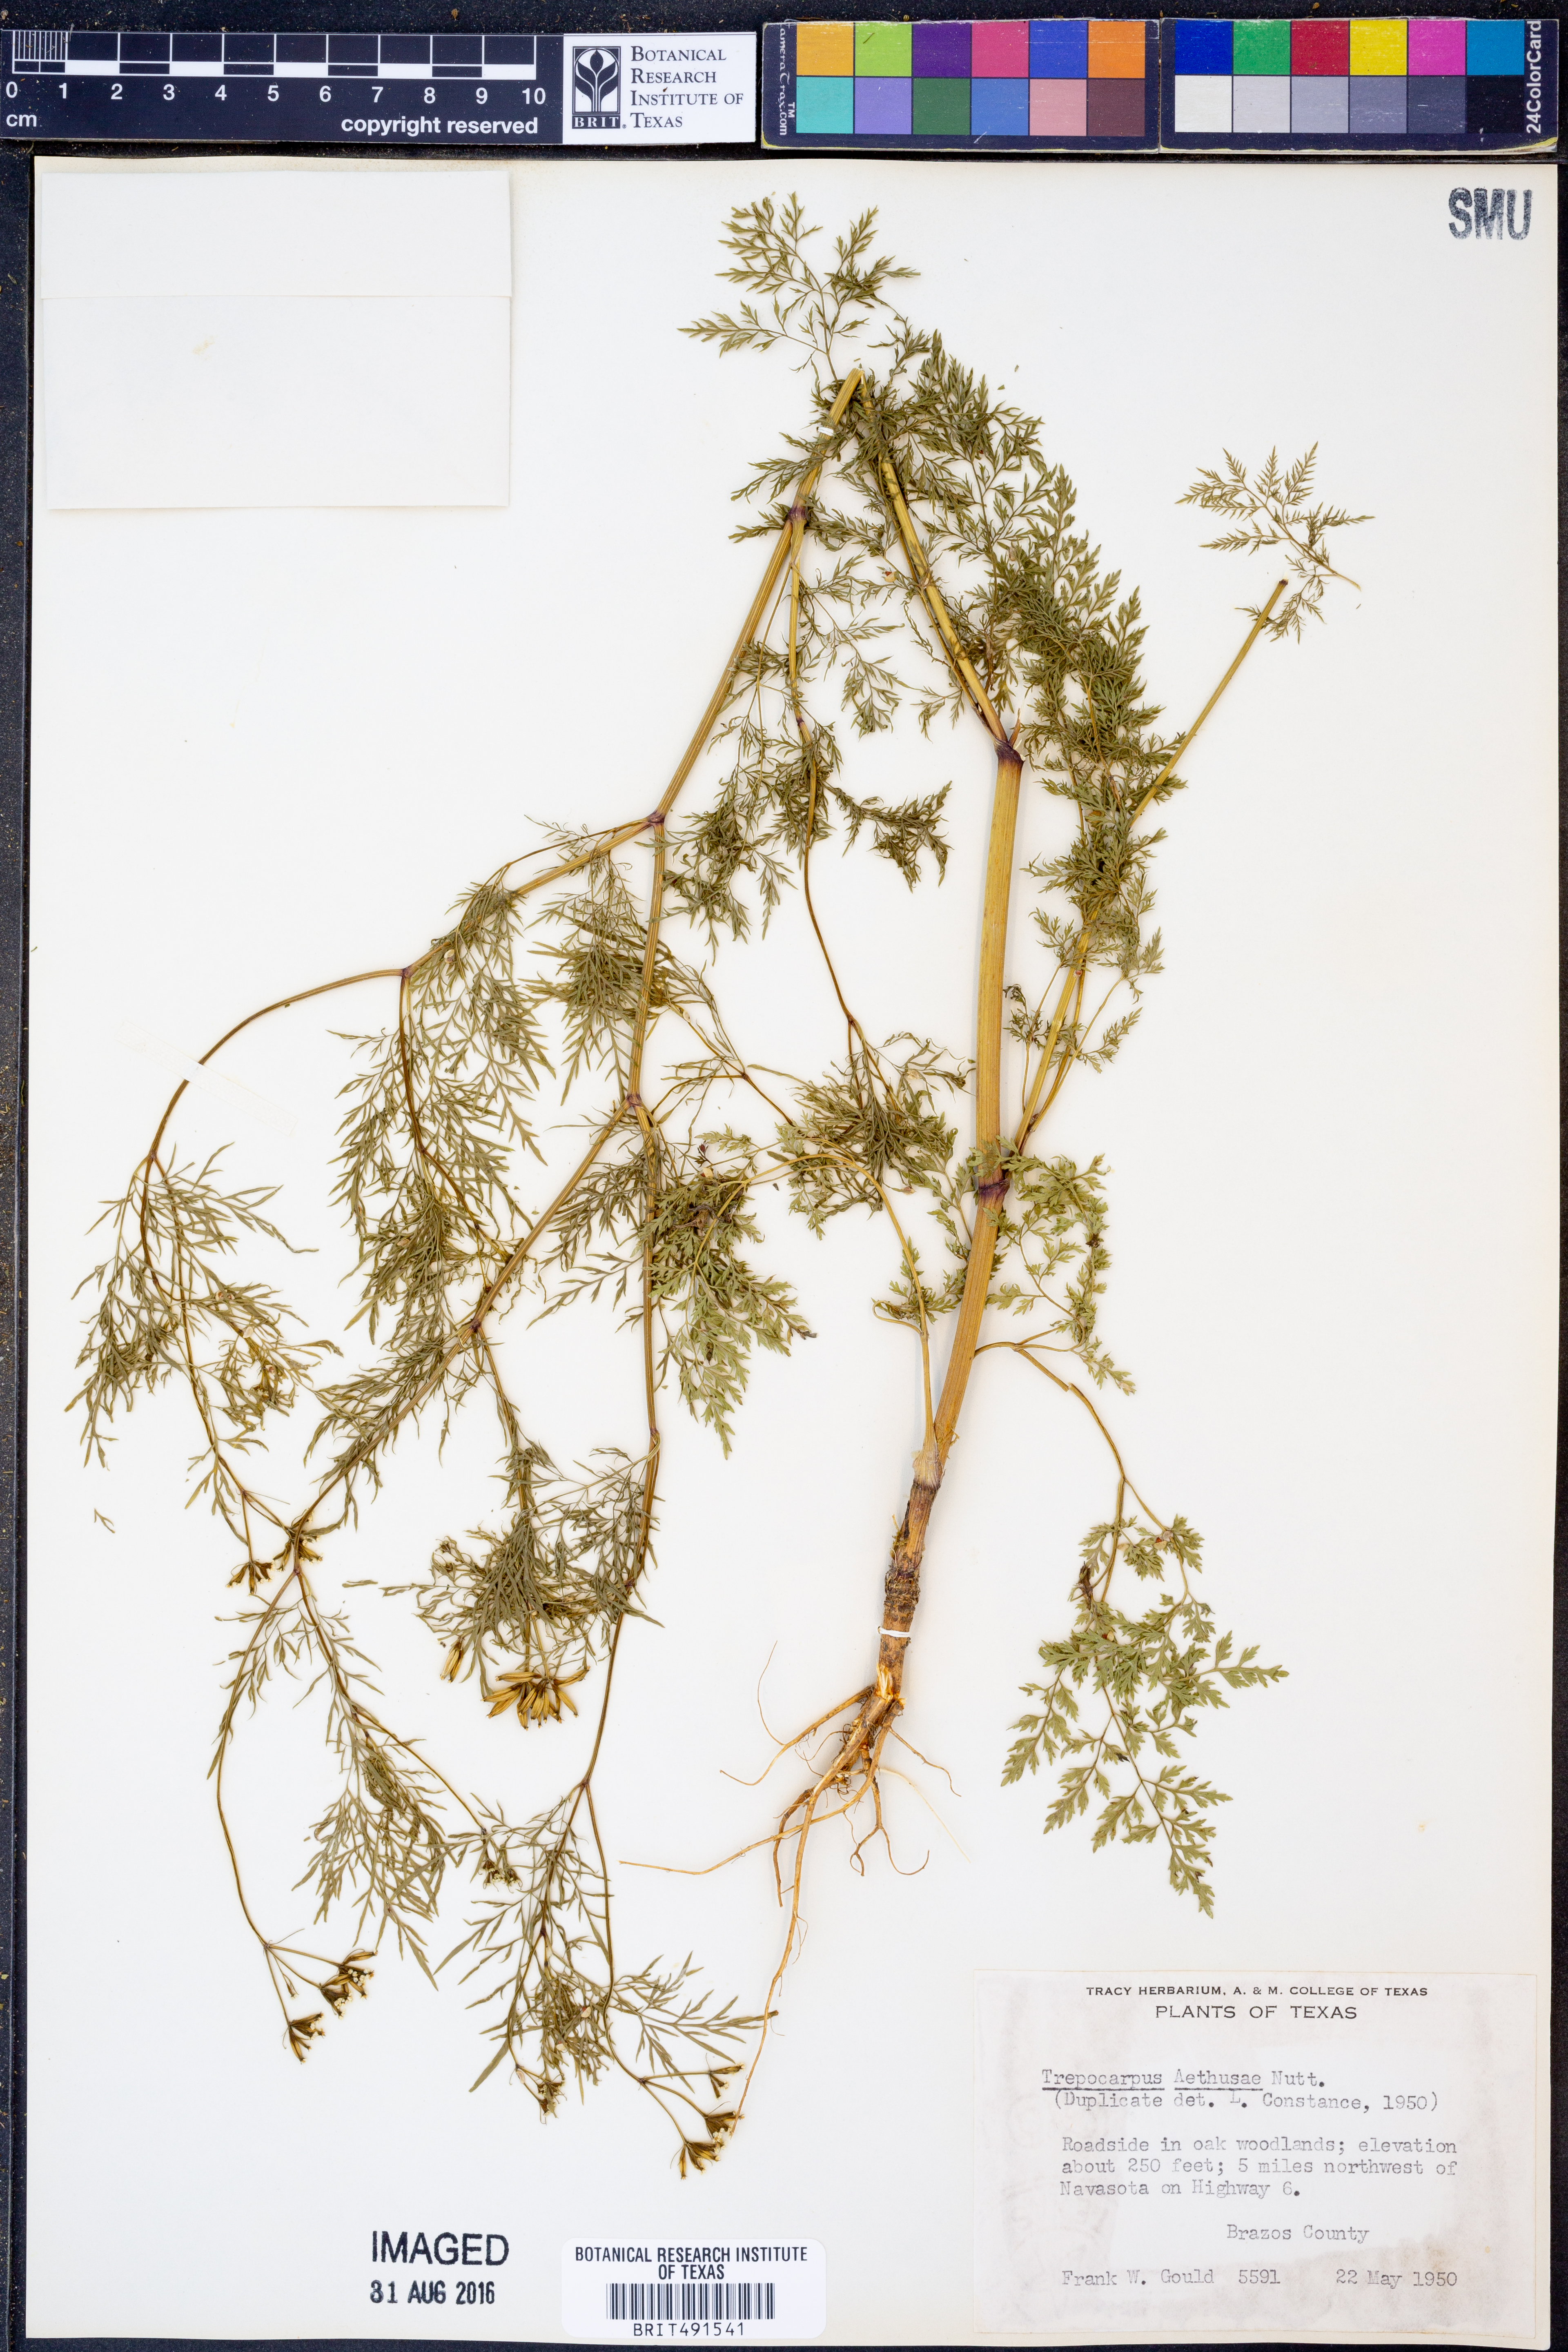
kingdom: Plantae
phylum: Tracheophyta
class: Magnoliopsida
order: Apiales
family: Apiaceae
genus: Trepocarpus
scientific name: Trepocarpus aethusae
